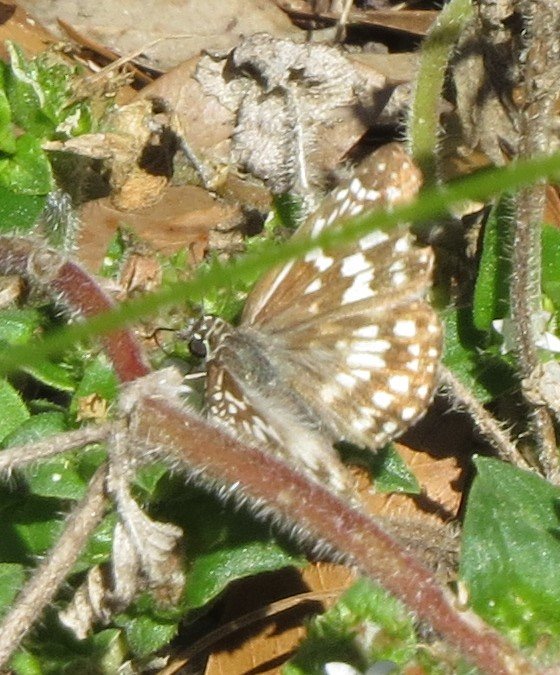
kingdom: Animalia
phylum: Arthropoda
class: Insecta
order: Lepidoptera
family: Hesperiidae
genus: Pyrgus
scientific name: Pyrgus oileus
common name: Tropical Checkered-Skipper
